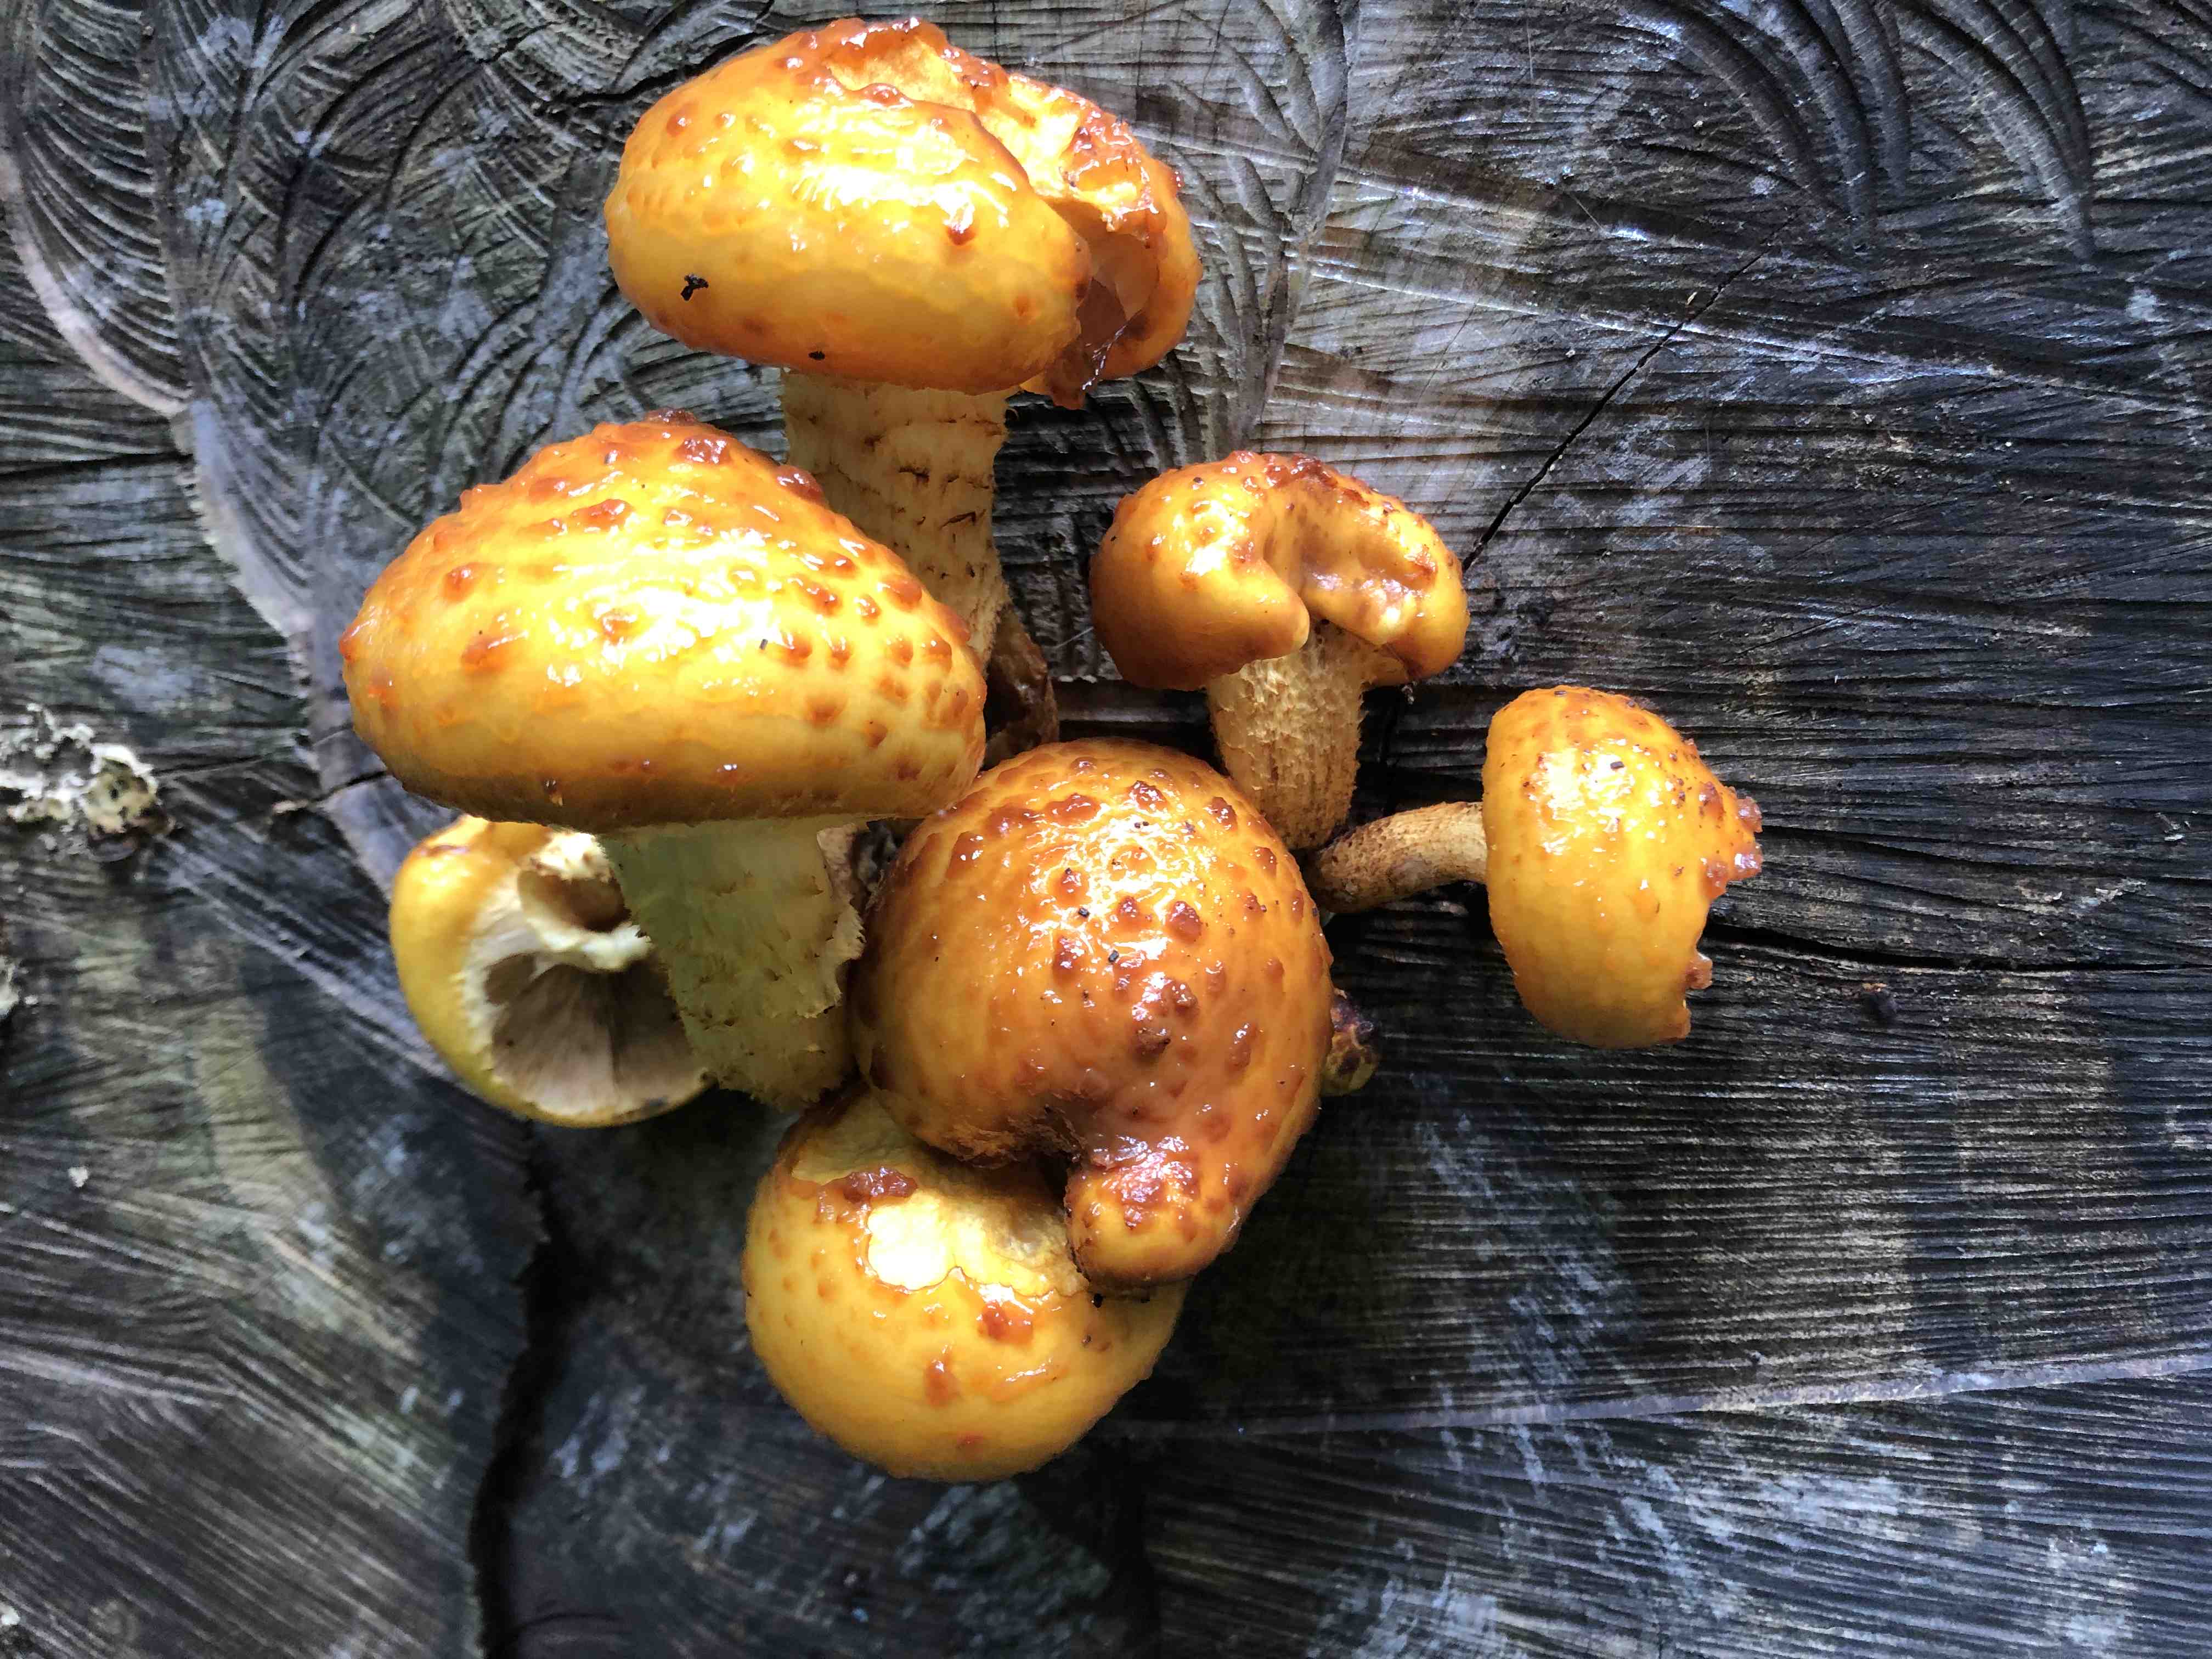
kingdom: Fungi
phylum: Basidiomycota
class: Agaricomycetes
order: Agaricales
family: Strophariaceae
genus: Pholiota
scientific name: Pholiota adiposa
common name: højtsiddende skælhat
